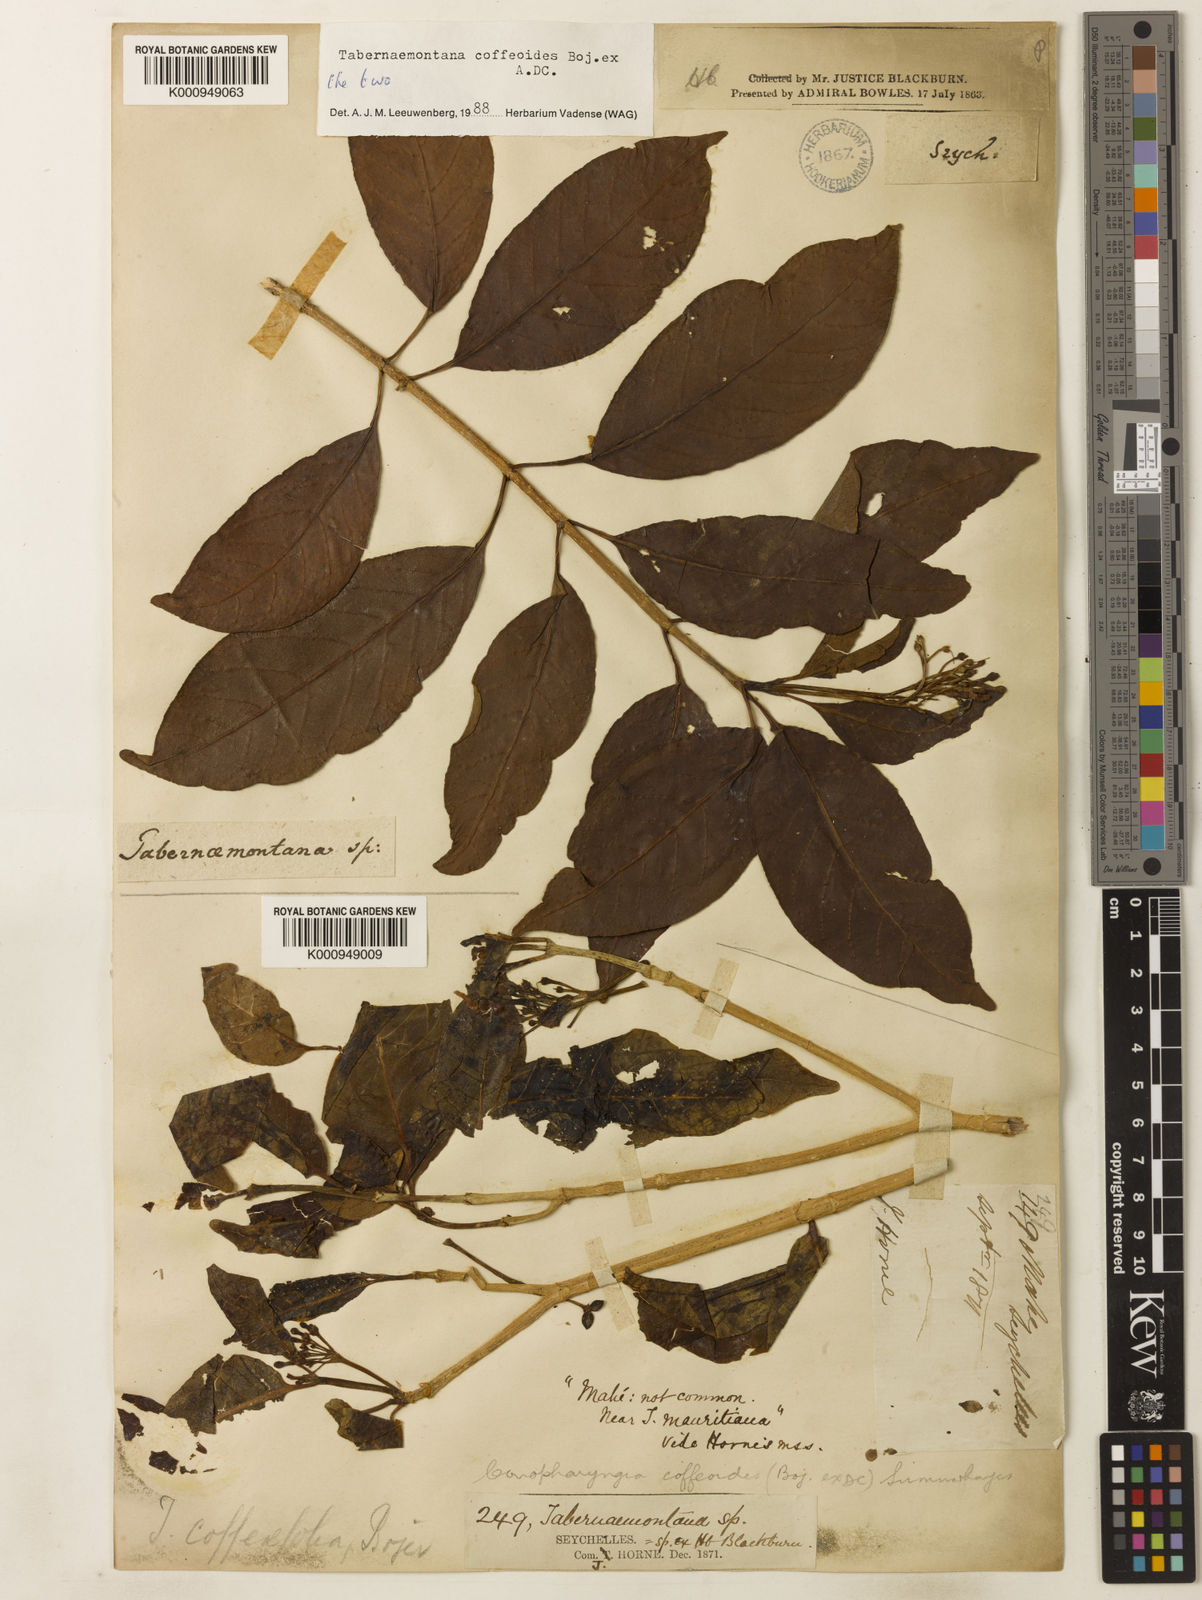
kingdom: Plantae
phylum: Tracheophyta
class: Magnoliopsida
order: Gentianales
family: Apocynaceae
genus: Tabernaemontana
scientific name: Tabernaemontana coffeoides
